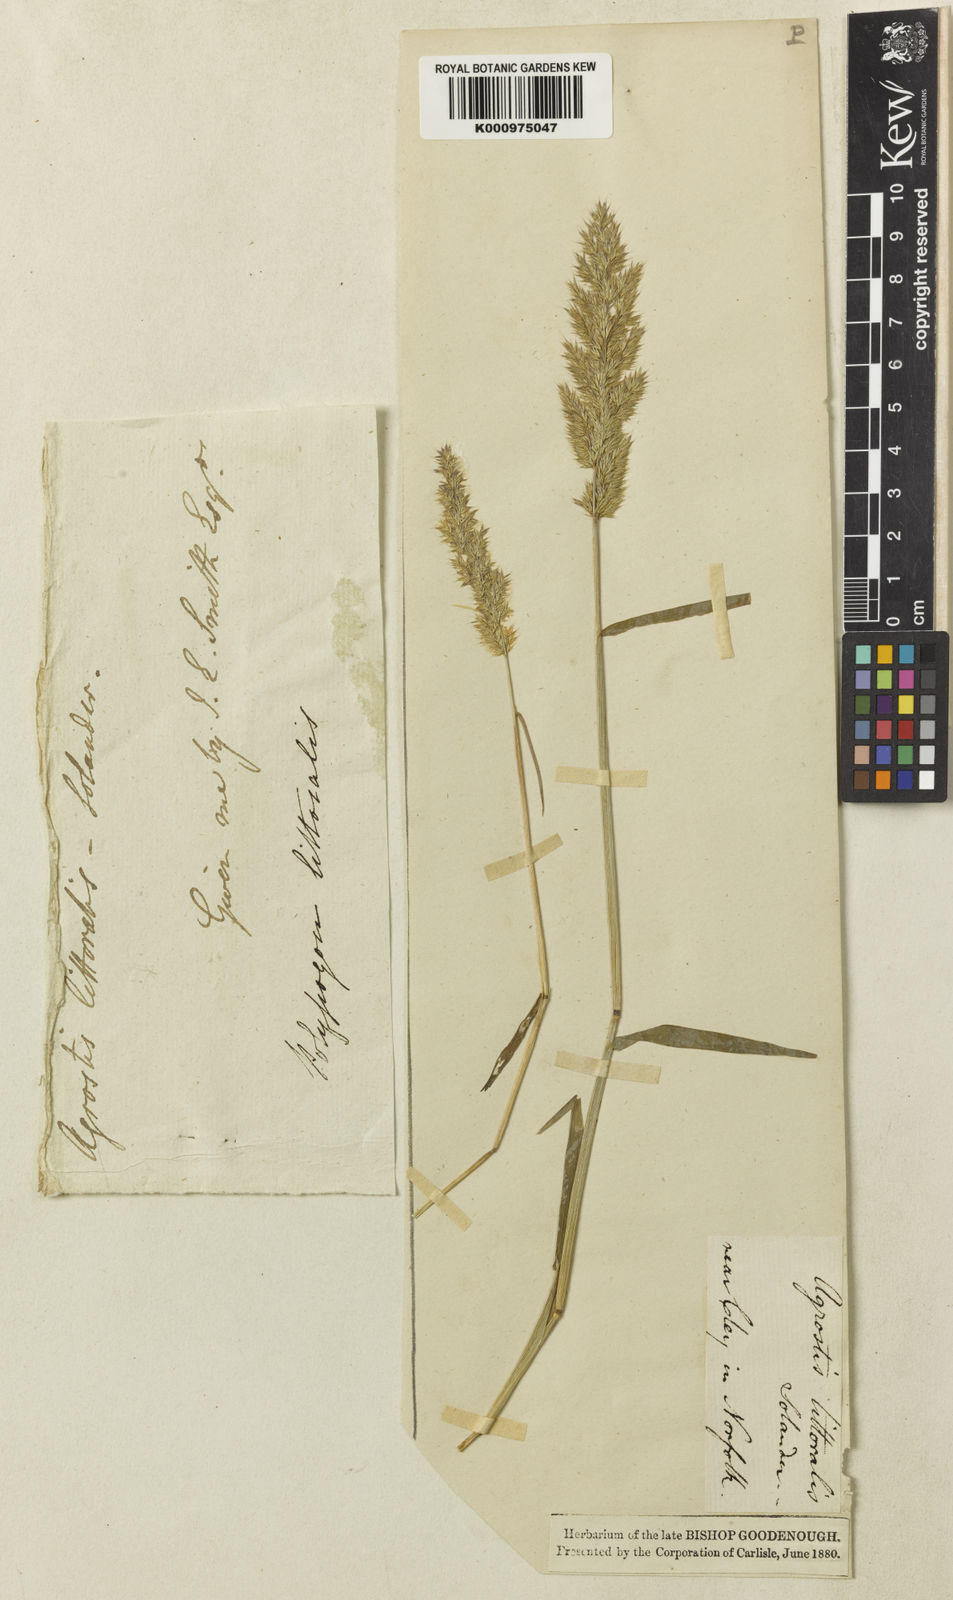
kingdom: Plantae
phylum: Tracheophyta
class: Liliopsida
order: Poales
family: Poaceae
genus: Agropogon
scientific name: Agropogon lutosus
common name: Coast agropogon
